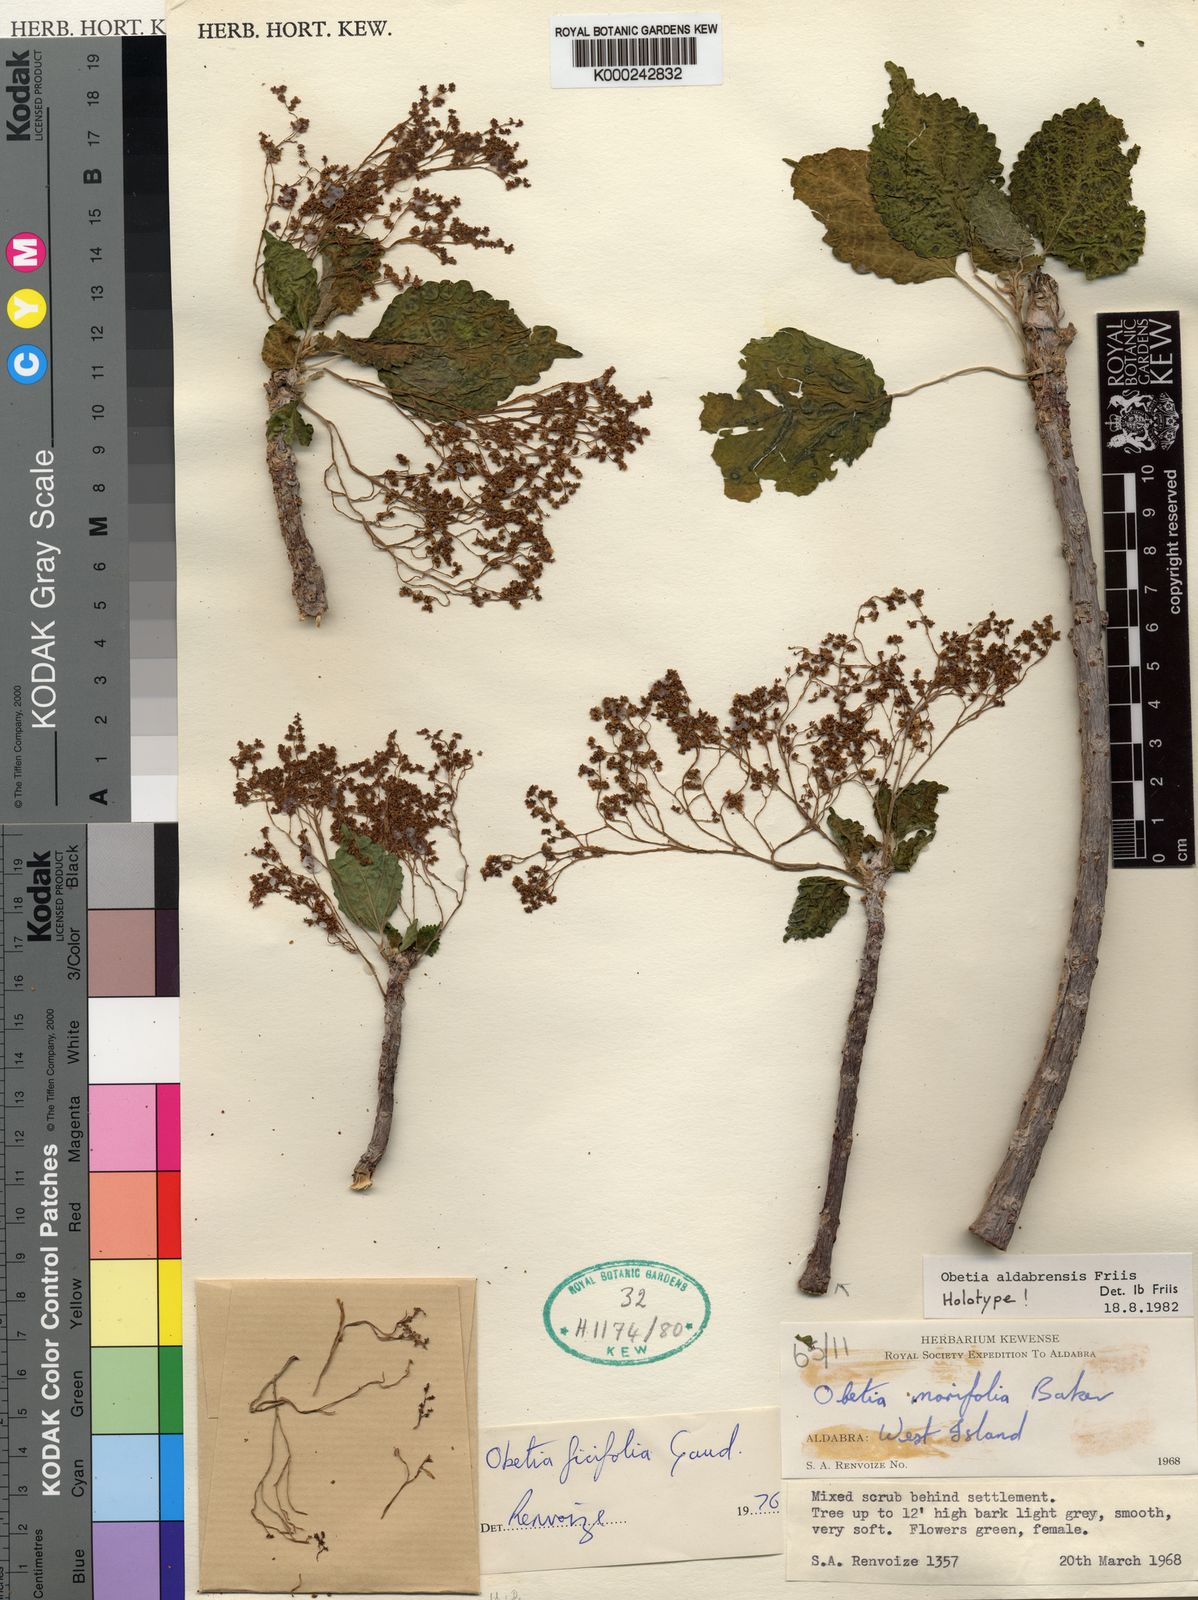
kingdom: Plantae
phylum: Tracheophyta
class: Magnoliopsida
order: Rosales
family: Urticaceae
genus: Obetia
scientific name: Obetia aldabrensis
